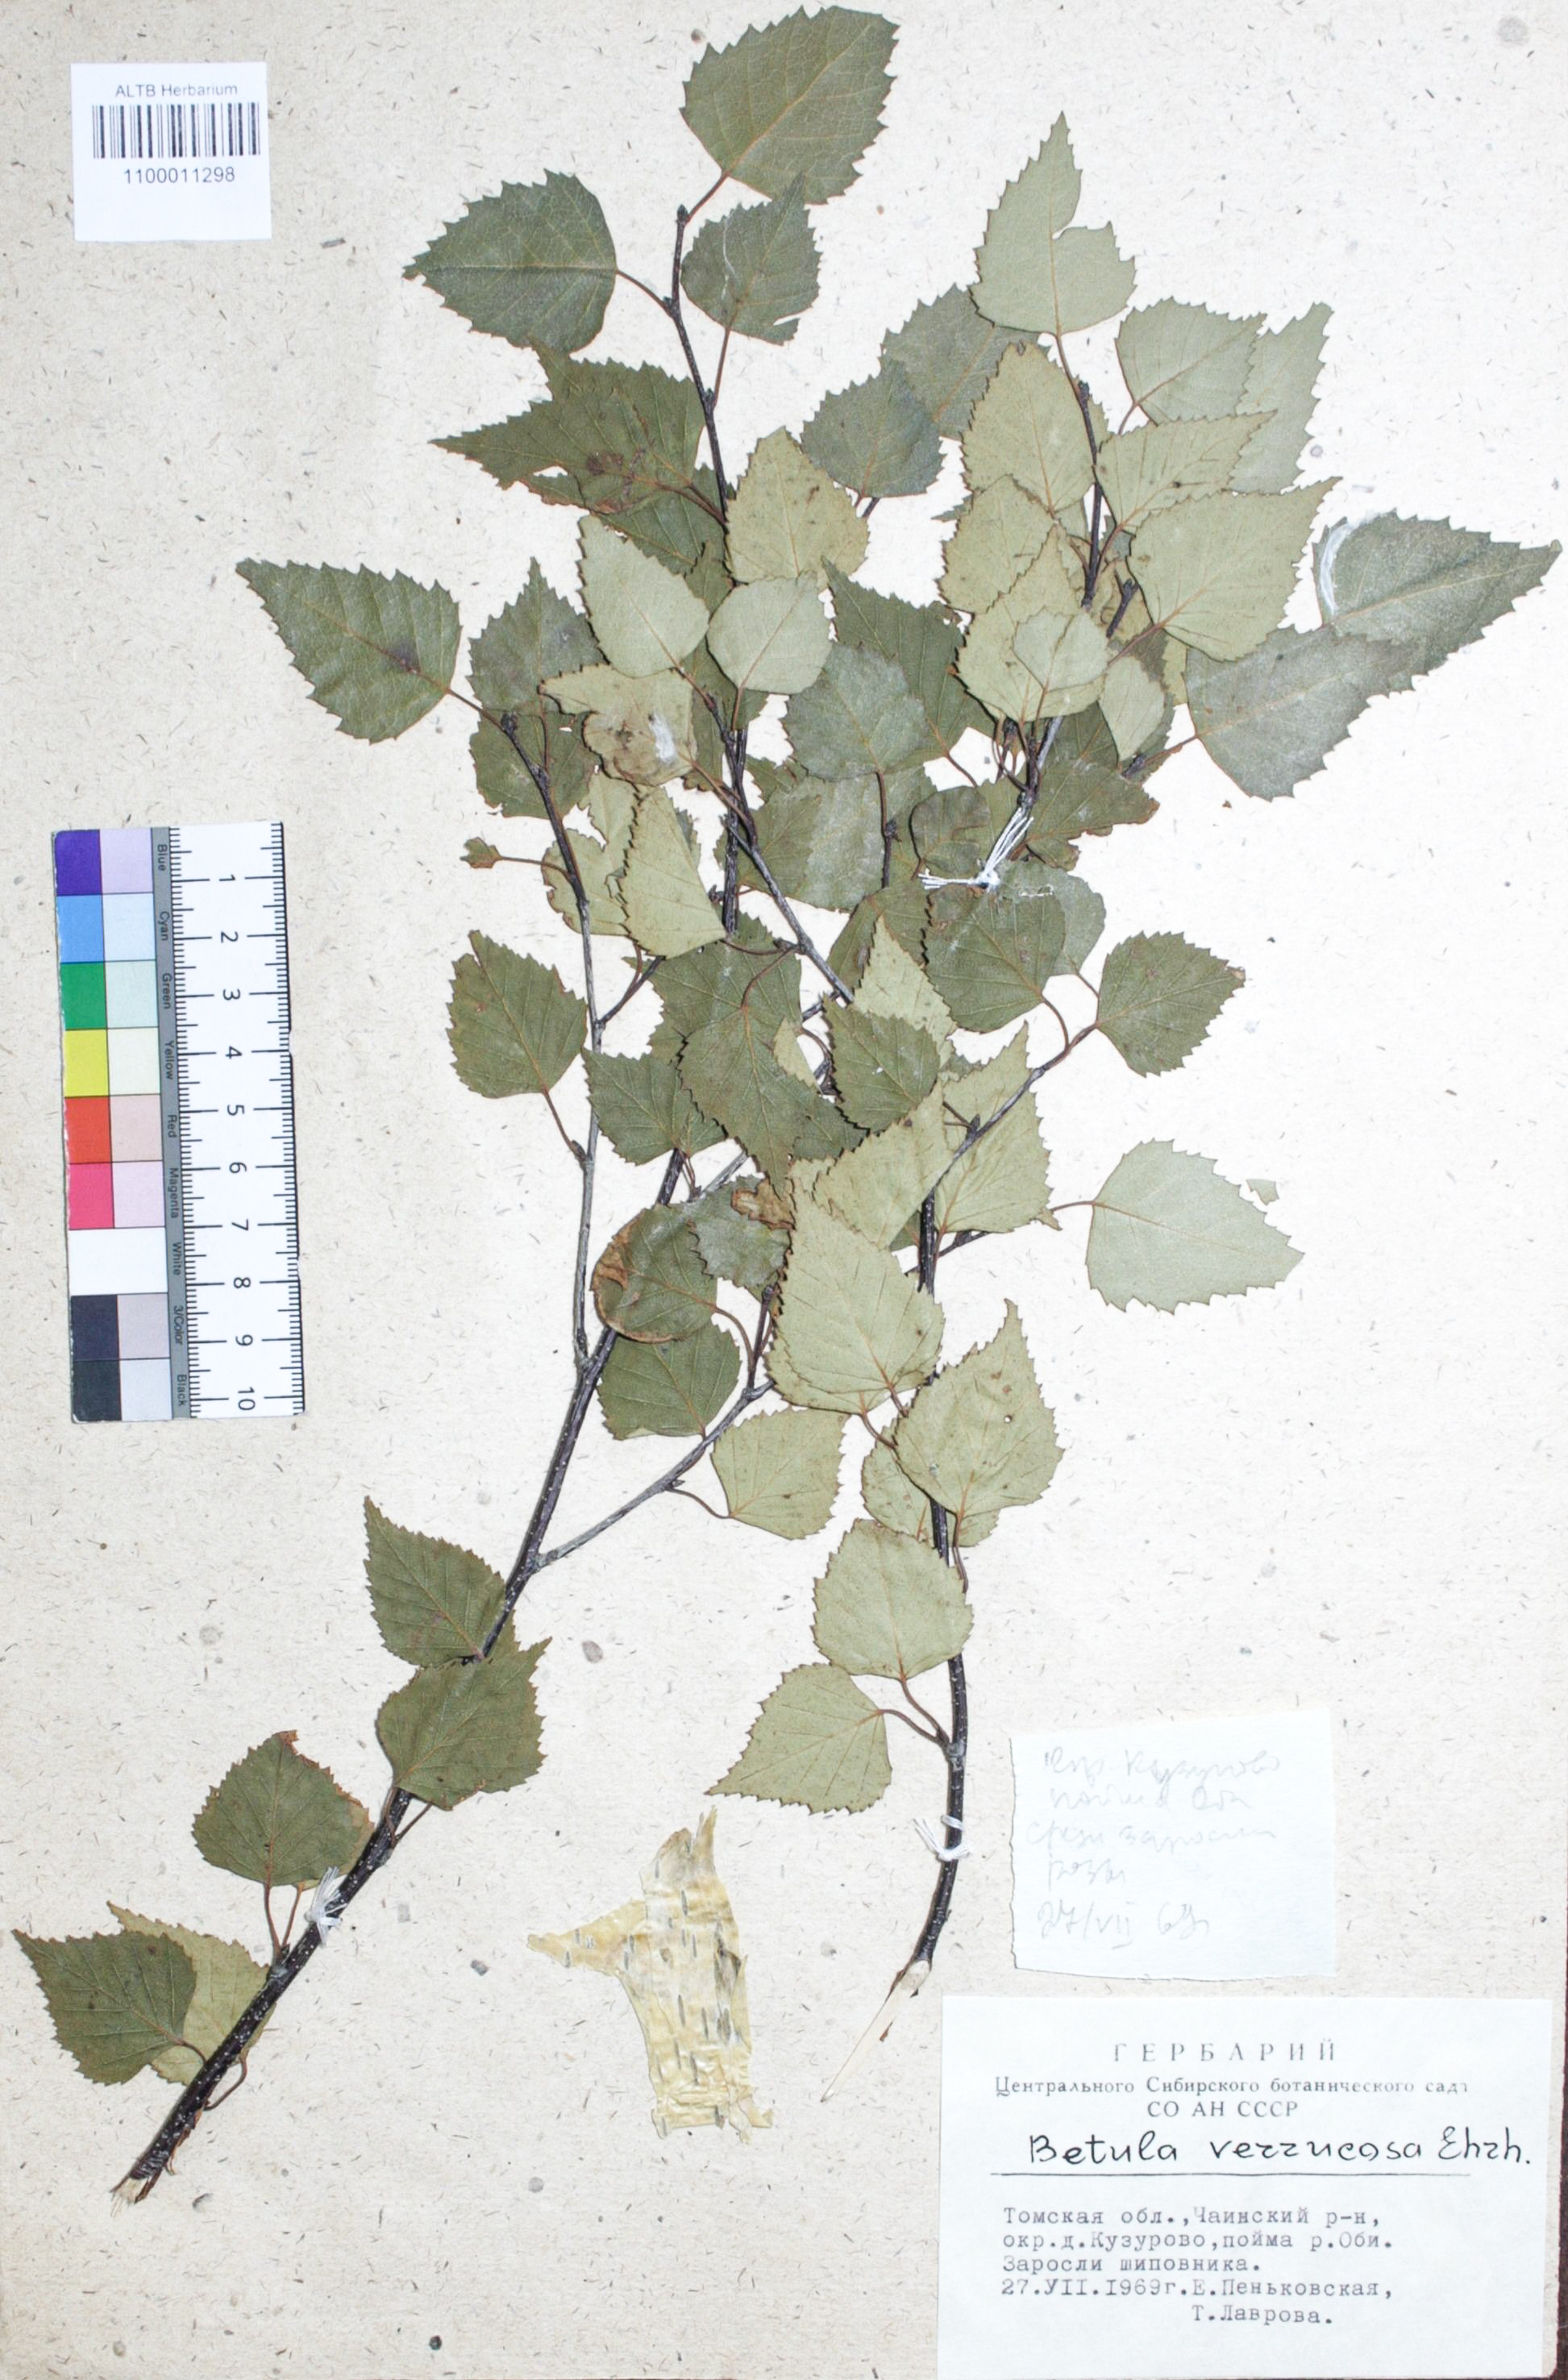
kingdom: Plantae
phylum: Tracheophyta
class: Magnoliopsida
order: Fagales
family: Betulaceae
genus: Betula
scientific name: Betula pendula
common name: Silver birch
